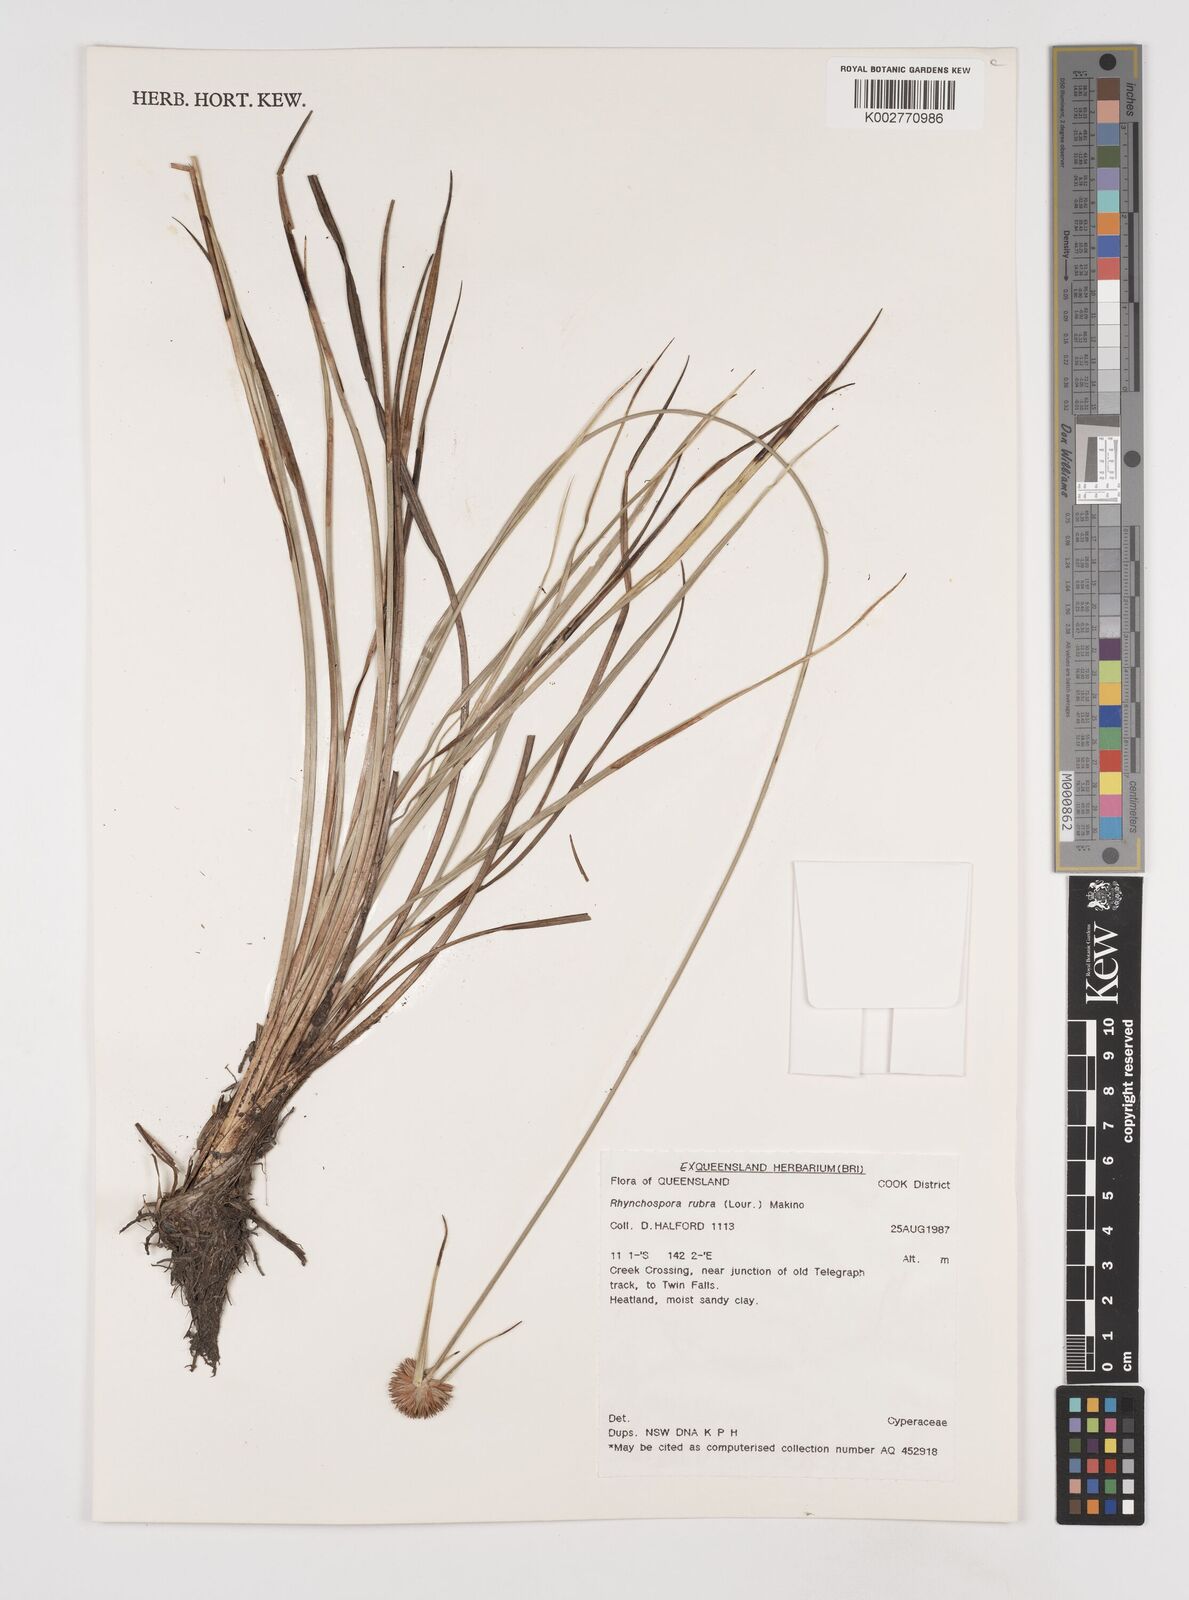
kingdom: Plantae
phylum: Tracheophyta
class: Liliopsida
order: Poales
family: Cyperaceae
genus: Rhynchospora
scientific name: Rhynchospora rubra
